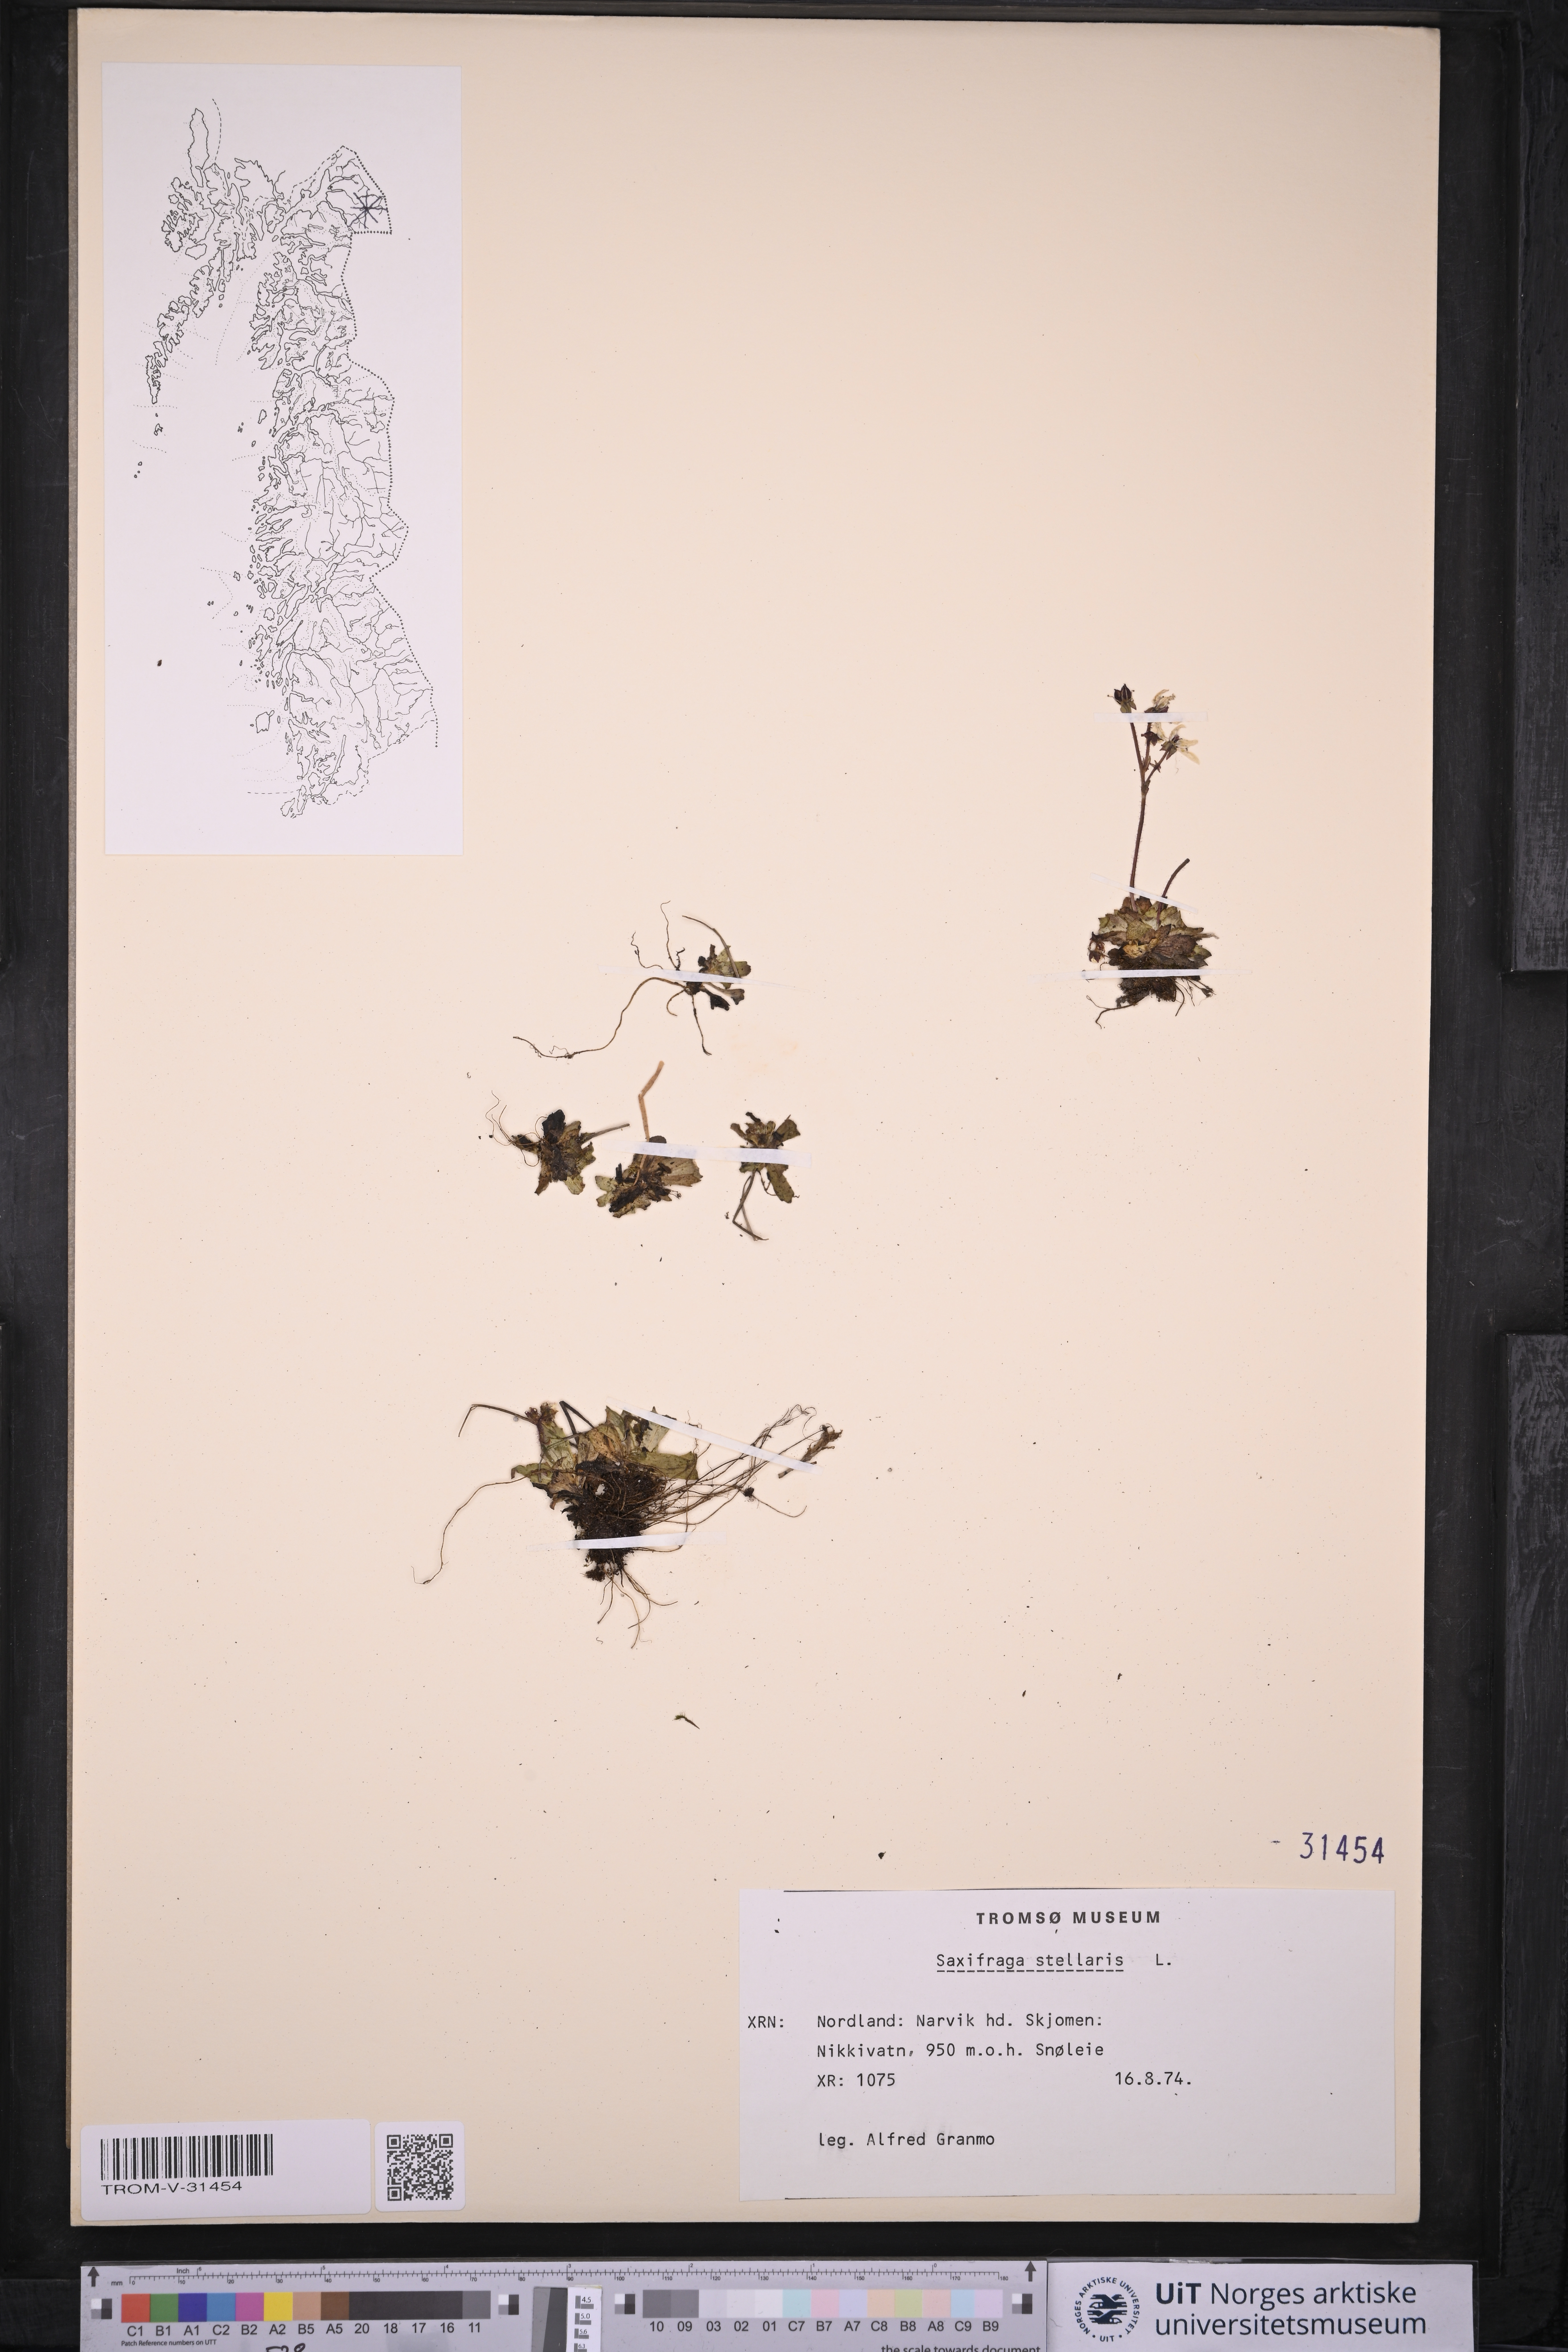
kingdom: Plantae
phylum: Tracheophyta
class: Magnoliopsida
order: Saxifragales
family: Saxifragaceae
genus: Micranthes
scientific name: Micranthes stellaris
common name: Starry saxifrage
